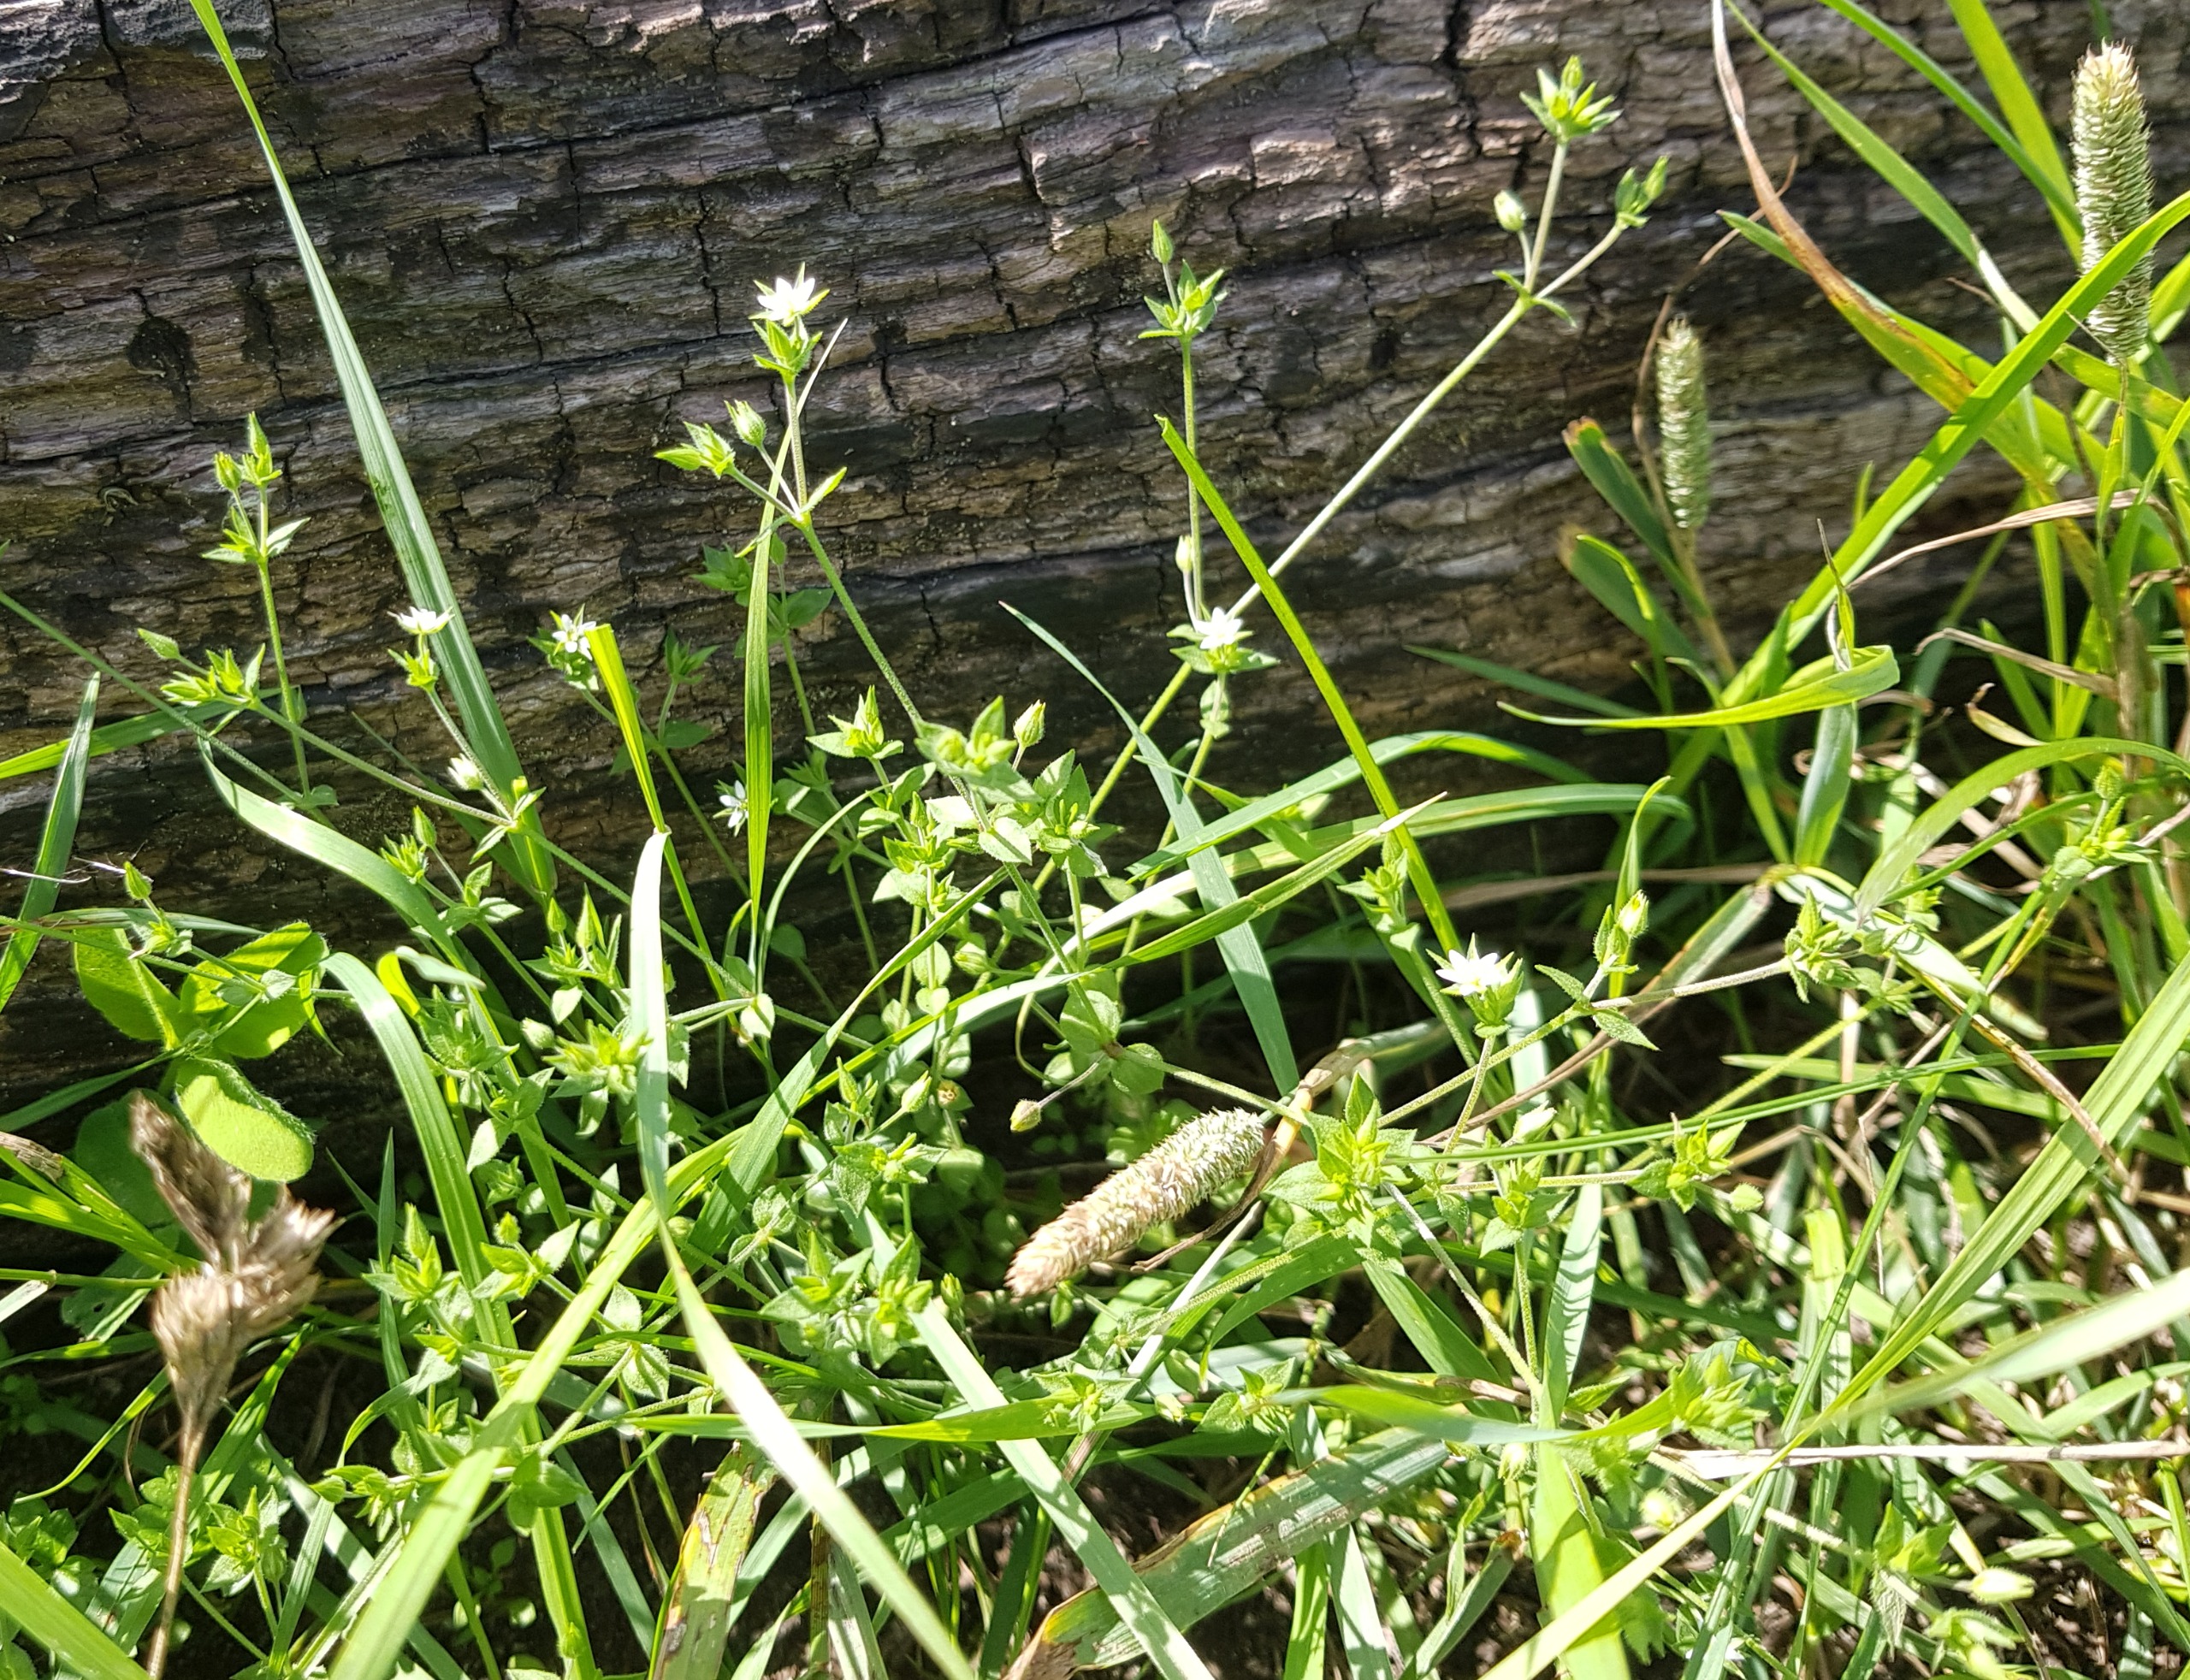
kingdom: Plantae
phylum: Tracheophyta
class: Magnoliopsida
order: Caryophyllales
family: Caryophyllaceae
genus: Arenaria
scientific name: Arenaria serpyllifolia
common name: Almindelig markarve (underart)
